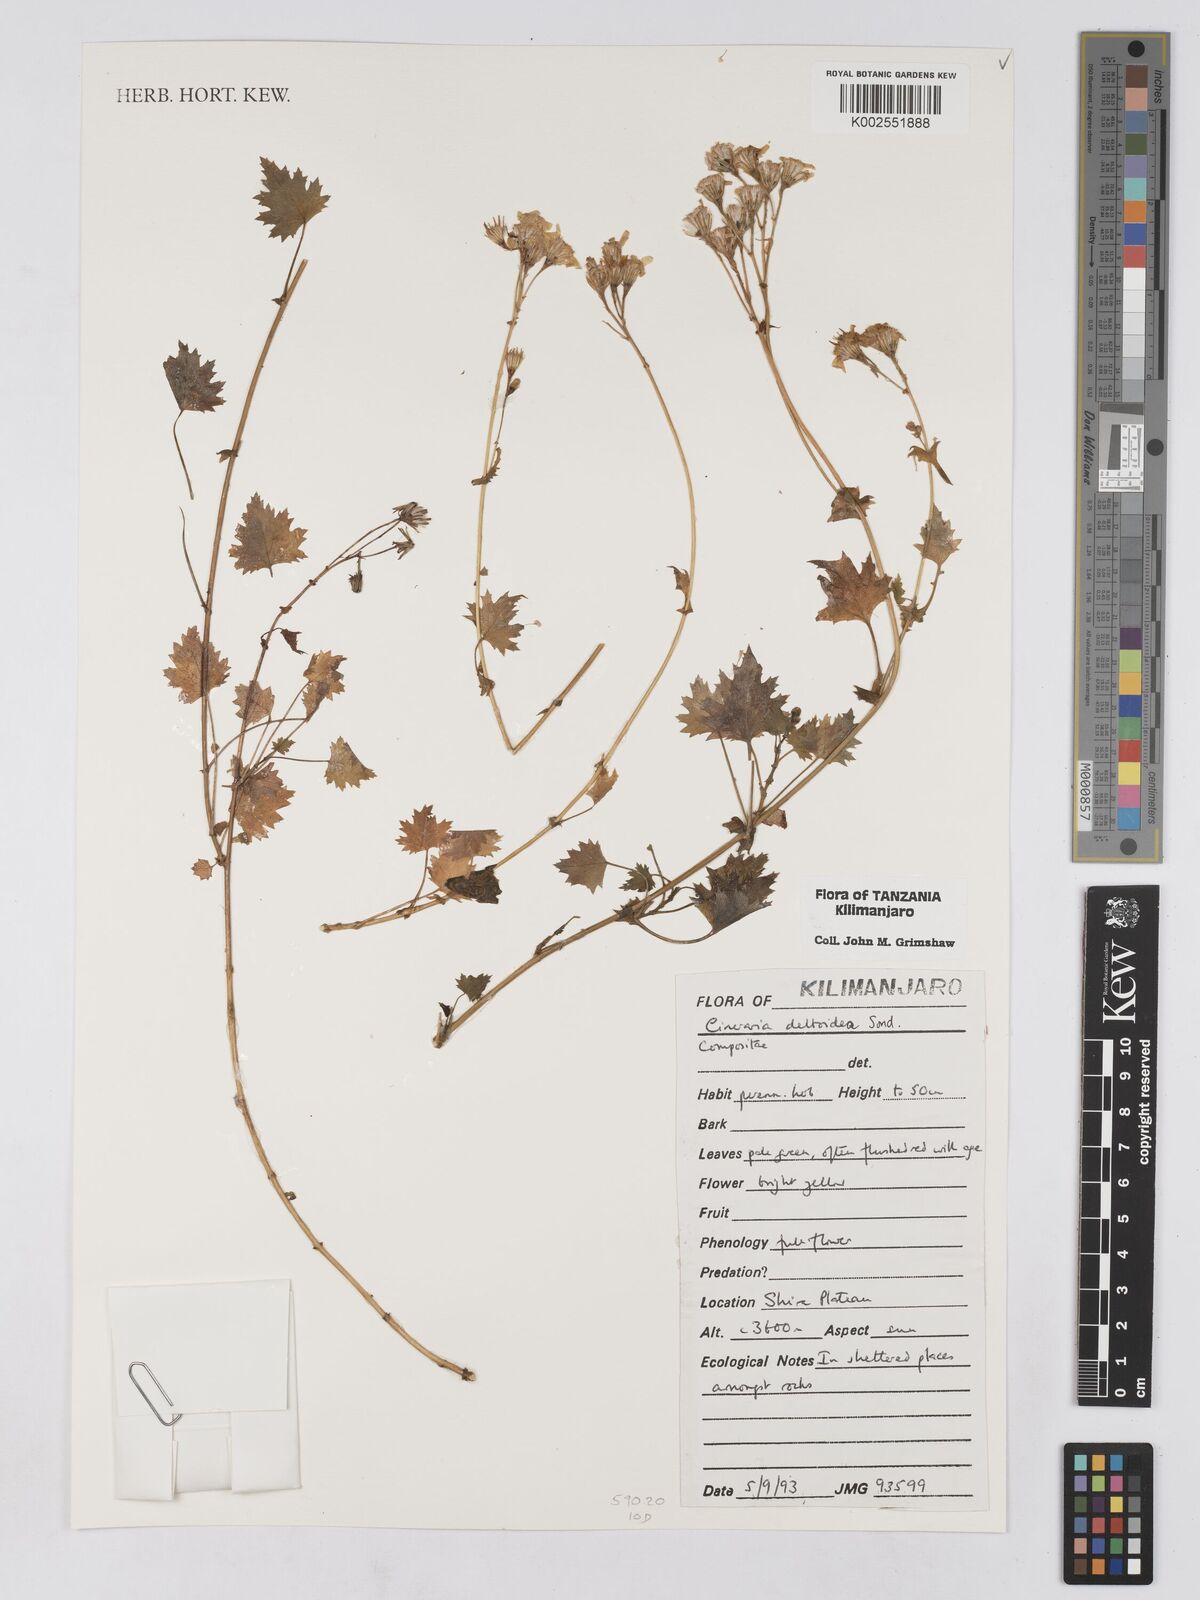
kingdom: Plantae
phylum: Tracheophyta
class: Magnoliopsida
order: Asterales
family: Asteraceae
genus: Cineraria
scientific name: Cineraria deltoidea
